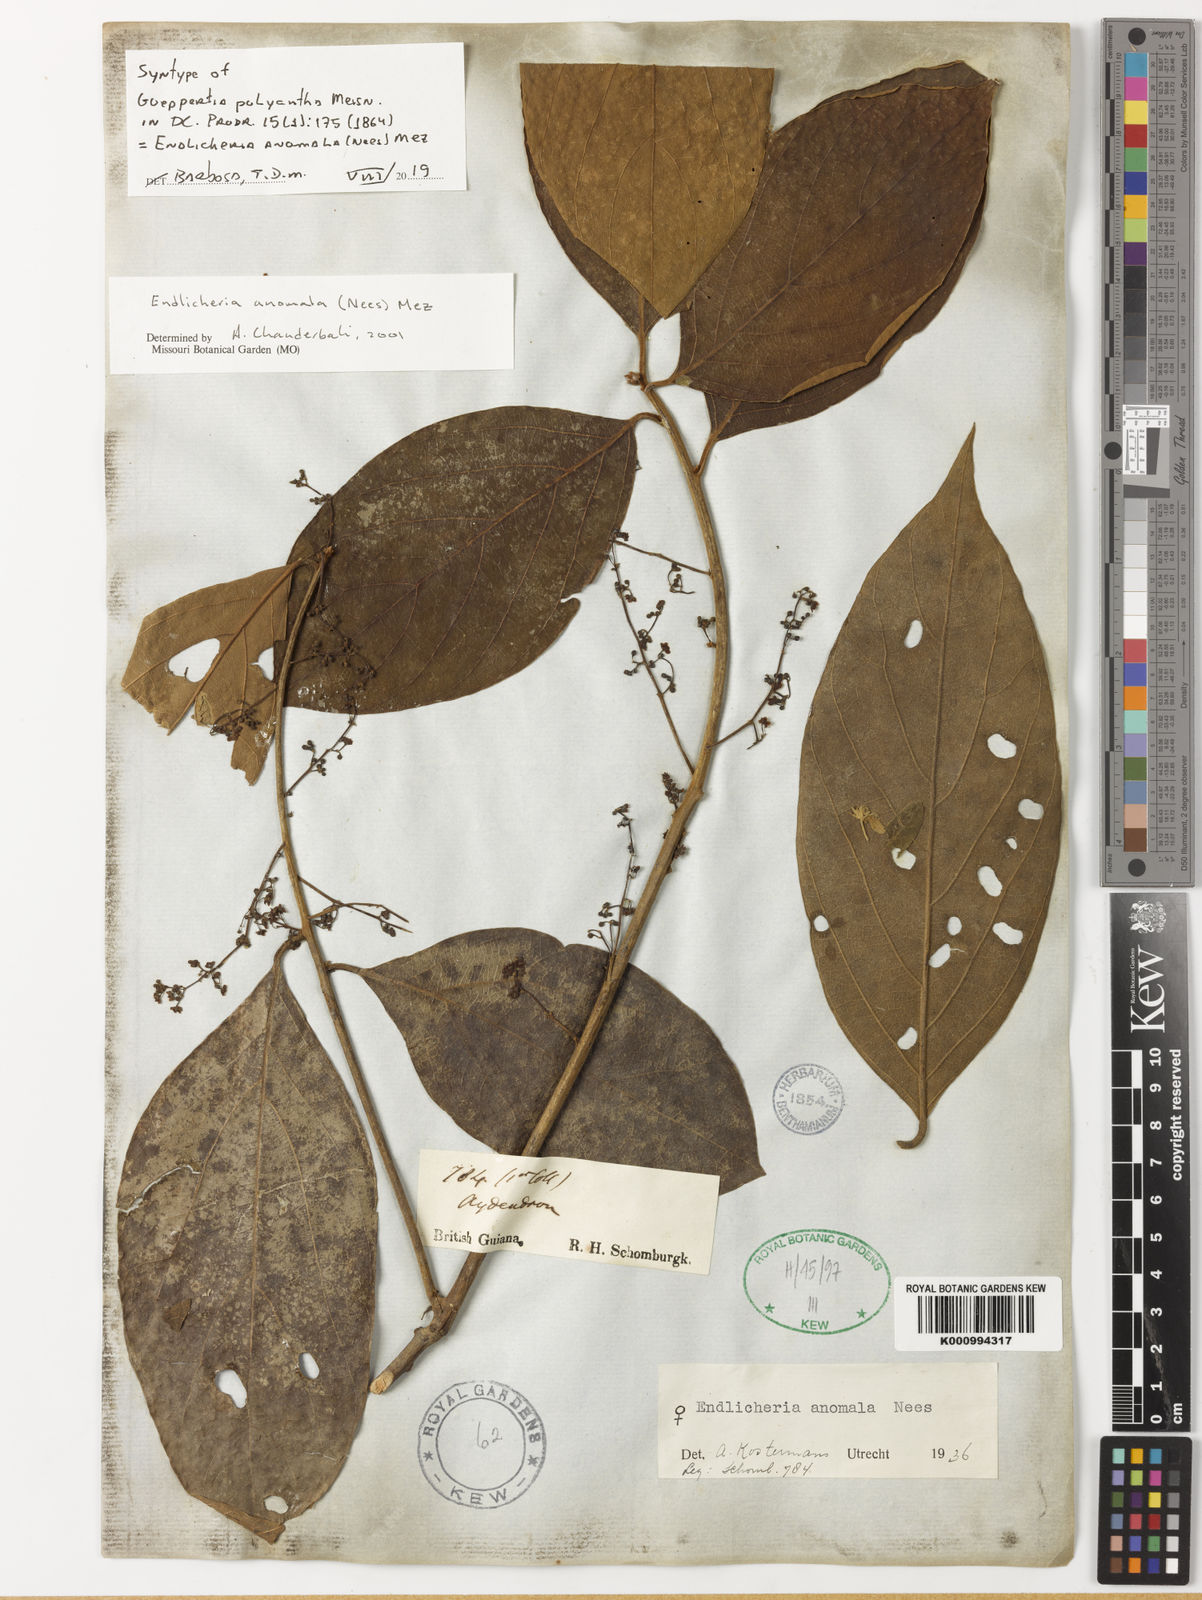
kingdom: Plantae
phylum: Tracheophyta
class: Magnoliopsida
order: Laurales
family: Lauraceae
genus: Endlicheria
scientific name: Endlicheria anomala
